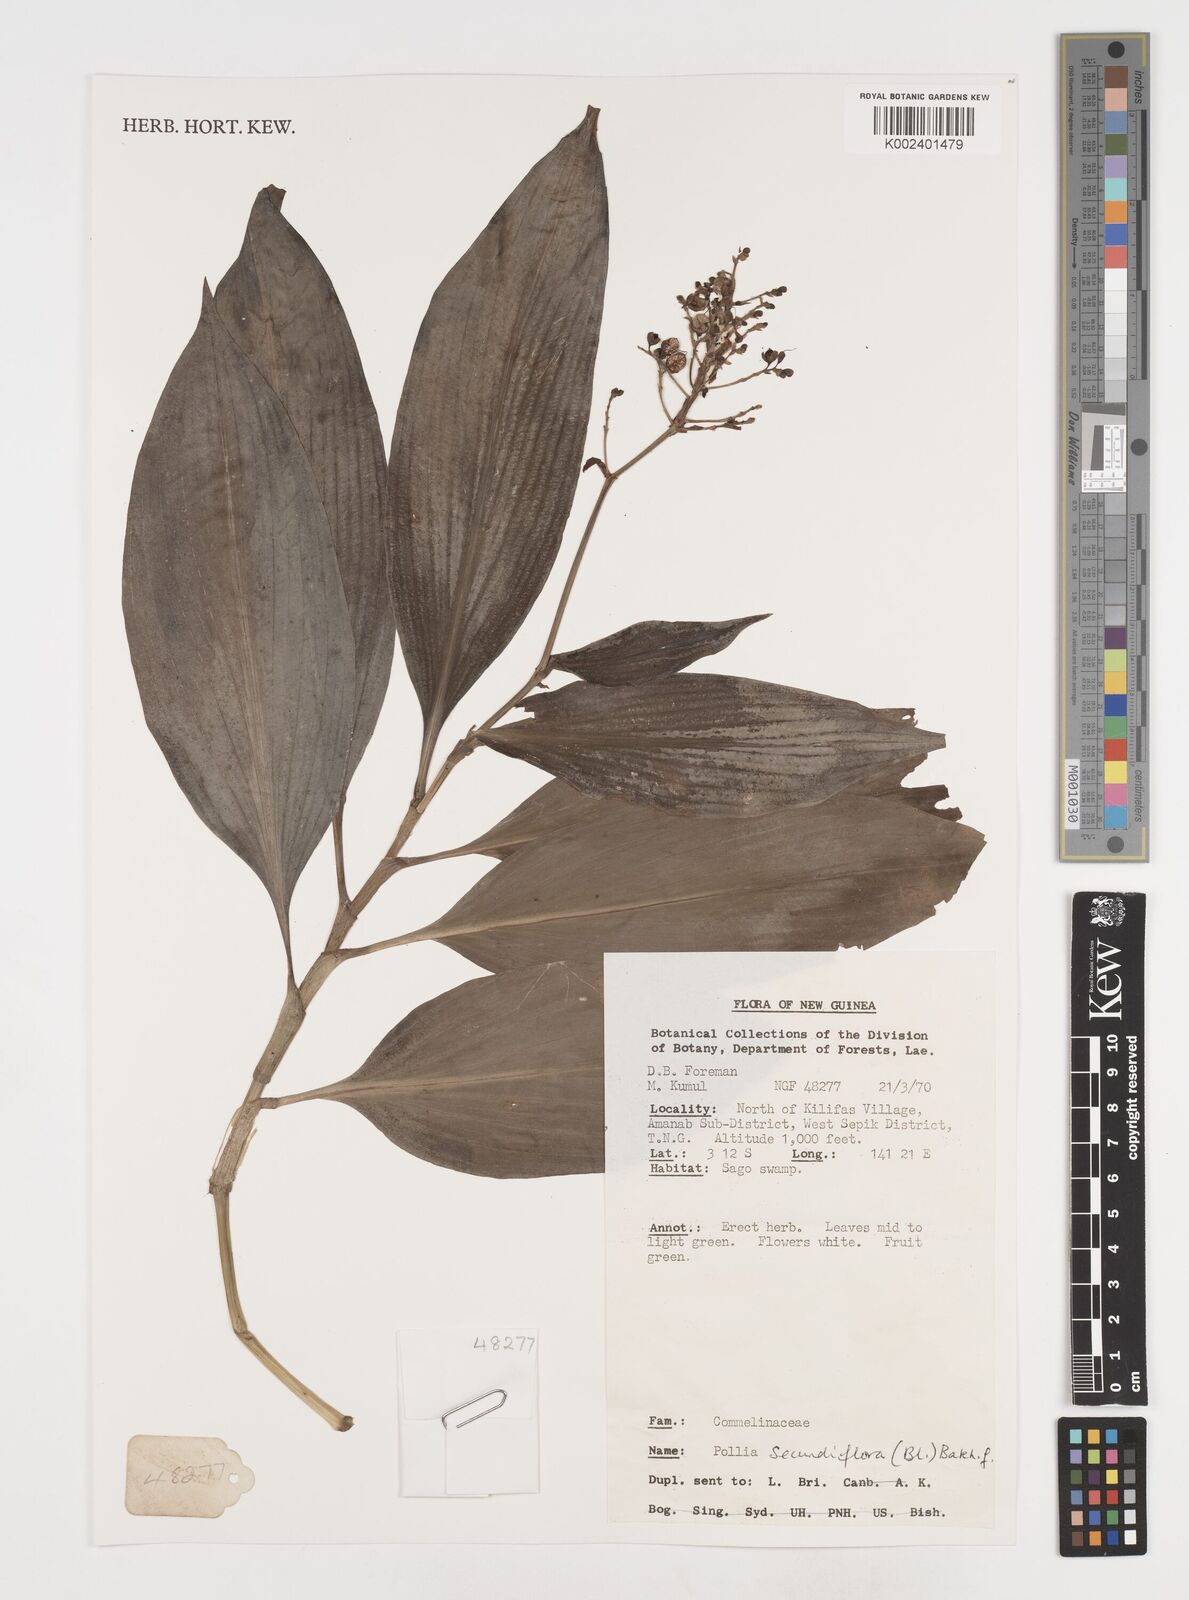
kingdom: Plantae
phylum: Tracheophyta
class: Liliopsida
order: Commelinales
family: Commelinaceae
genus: Pollia
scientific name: Pollia secundiflora
